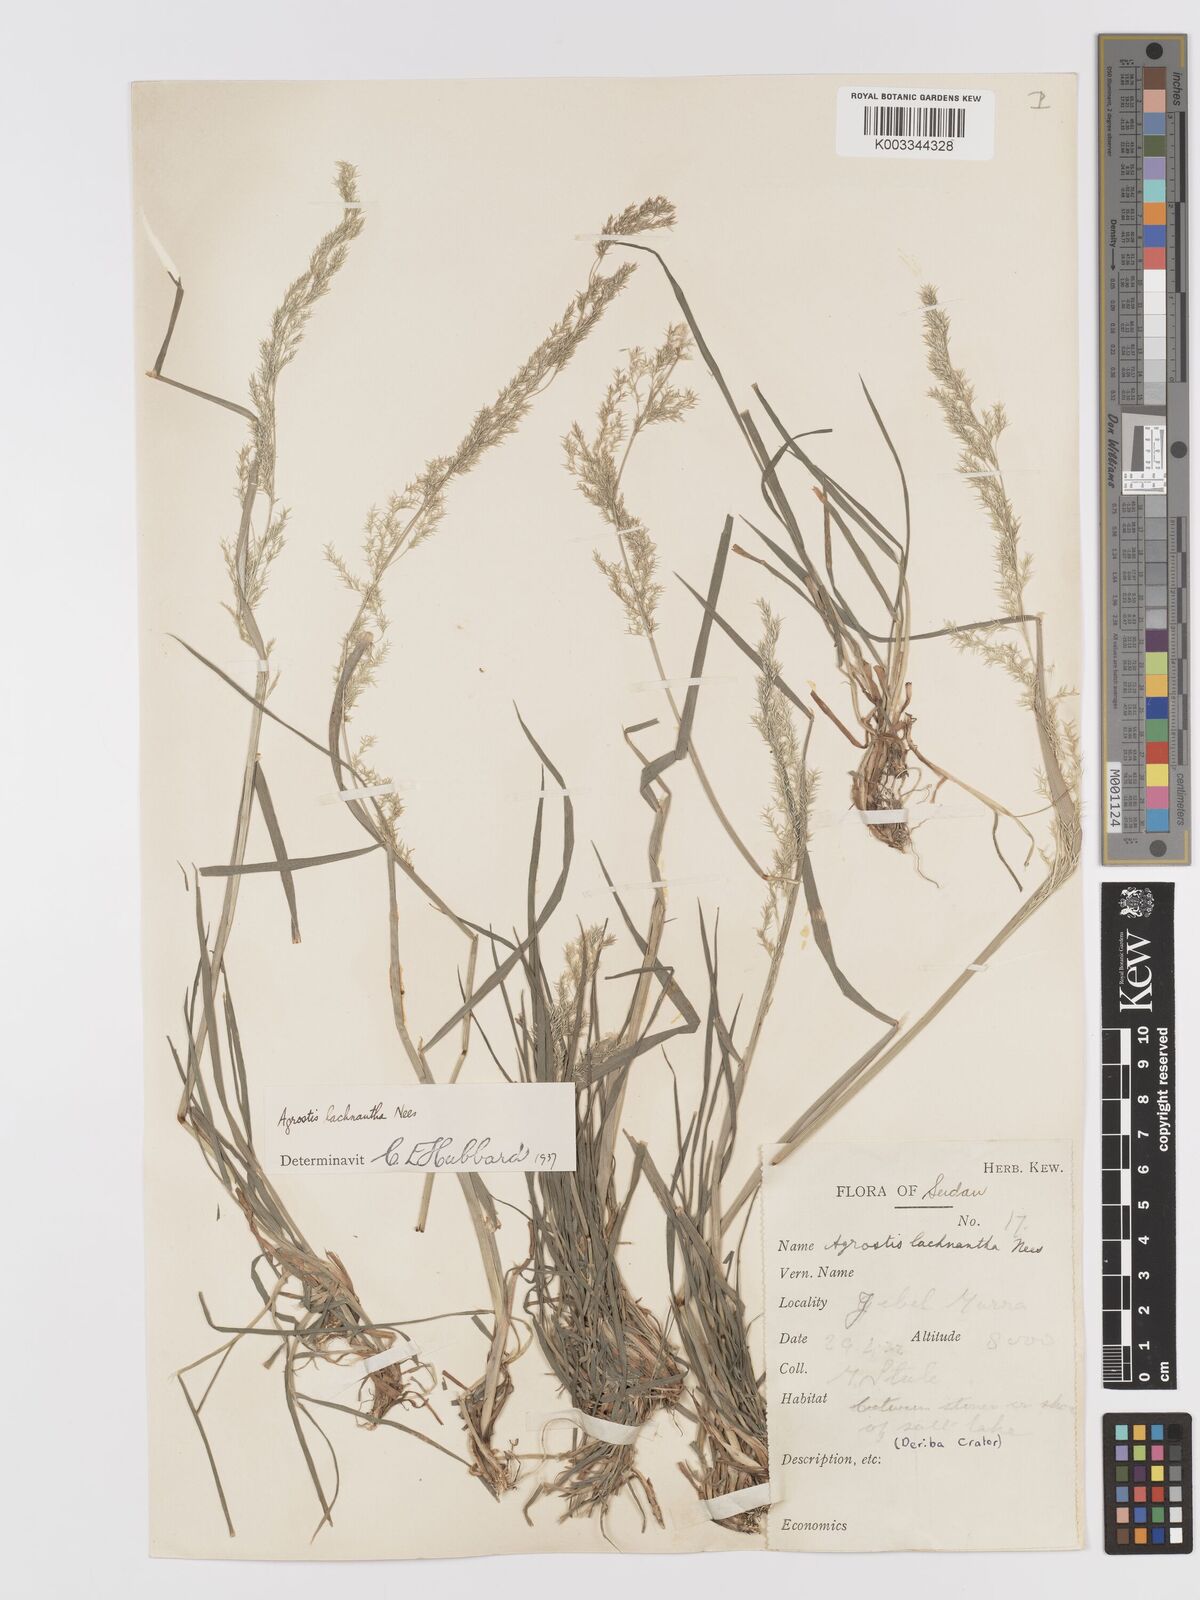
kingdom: Plantae
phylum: Tracheophyta
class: Liliopsida
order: Poales
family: Poaceae
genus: Lachnagrostis
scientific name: Lachnagrostis lachnantha
